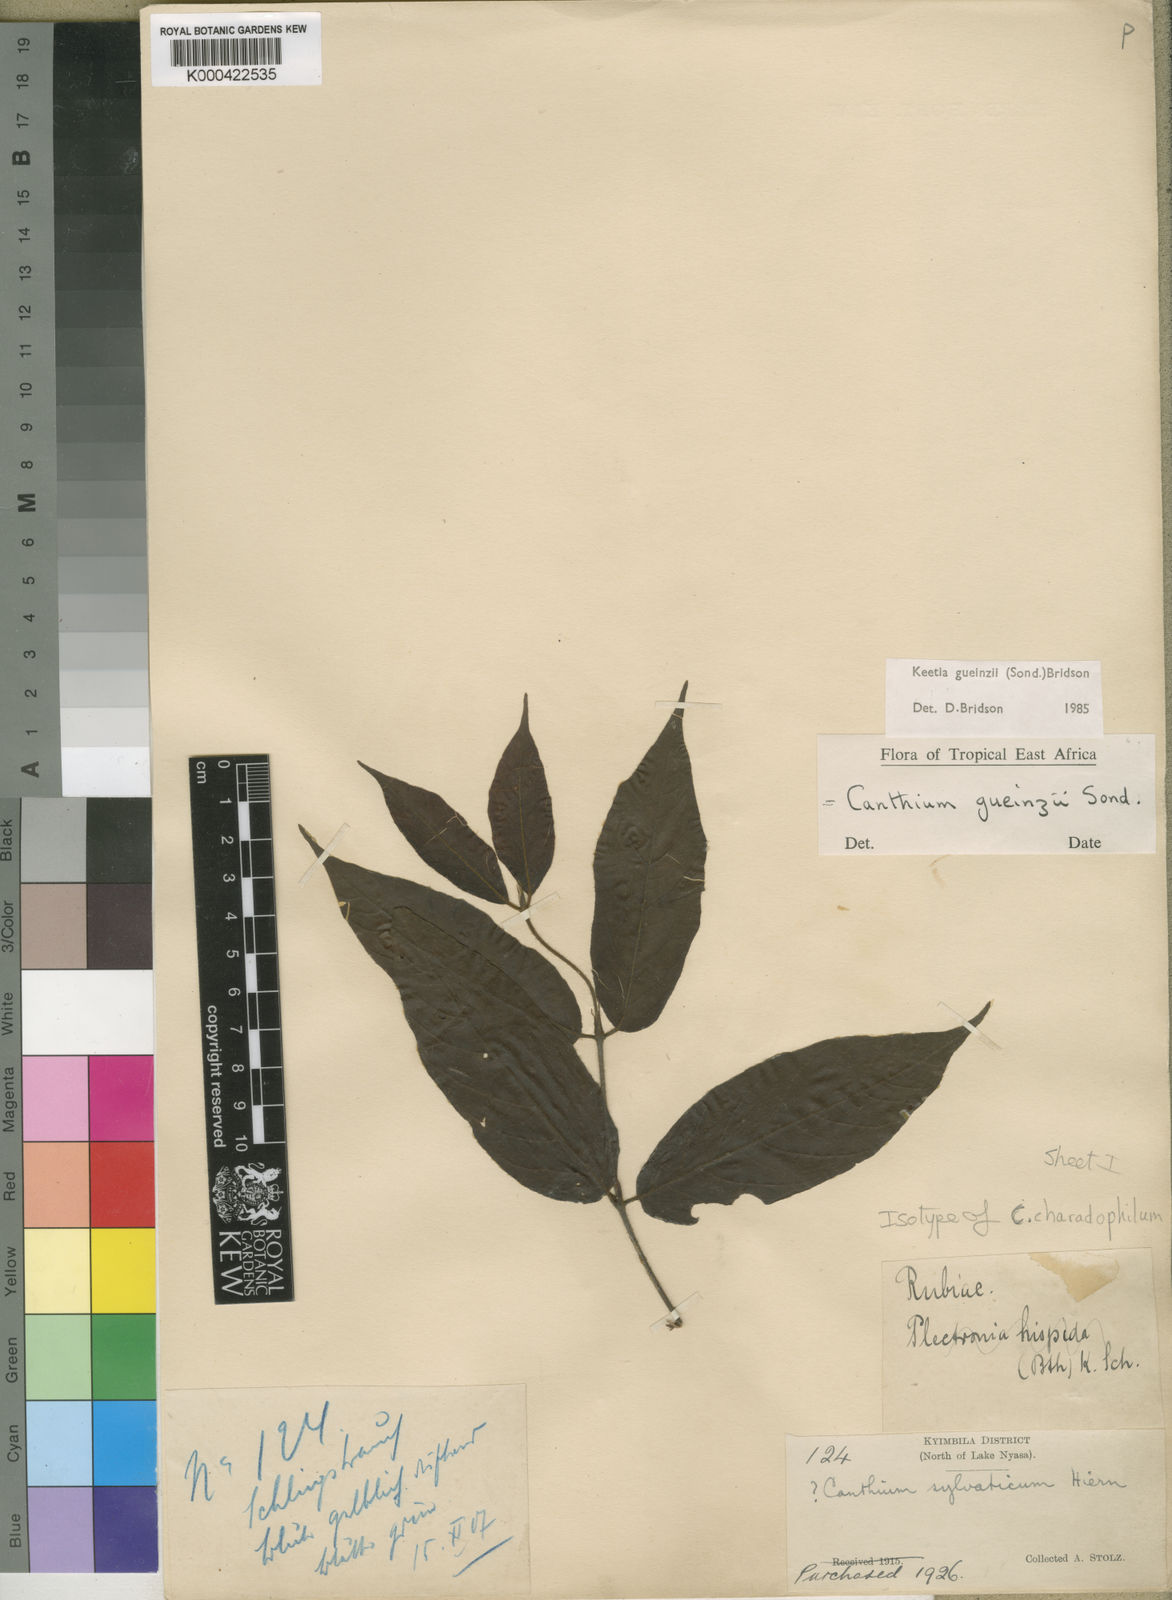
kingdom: Plantae
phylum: Tracheophyta
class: Magnoliopsida
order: Gentianales
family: Rubiaceae
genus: Keetia
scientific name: Keetia gueinzii
